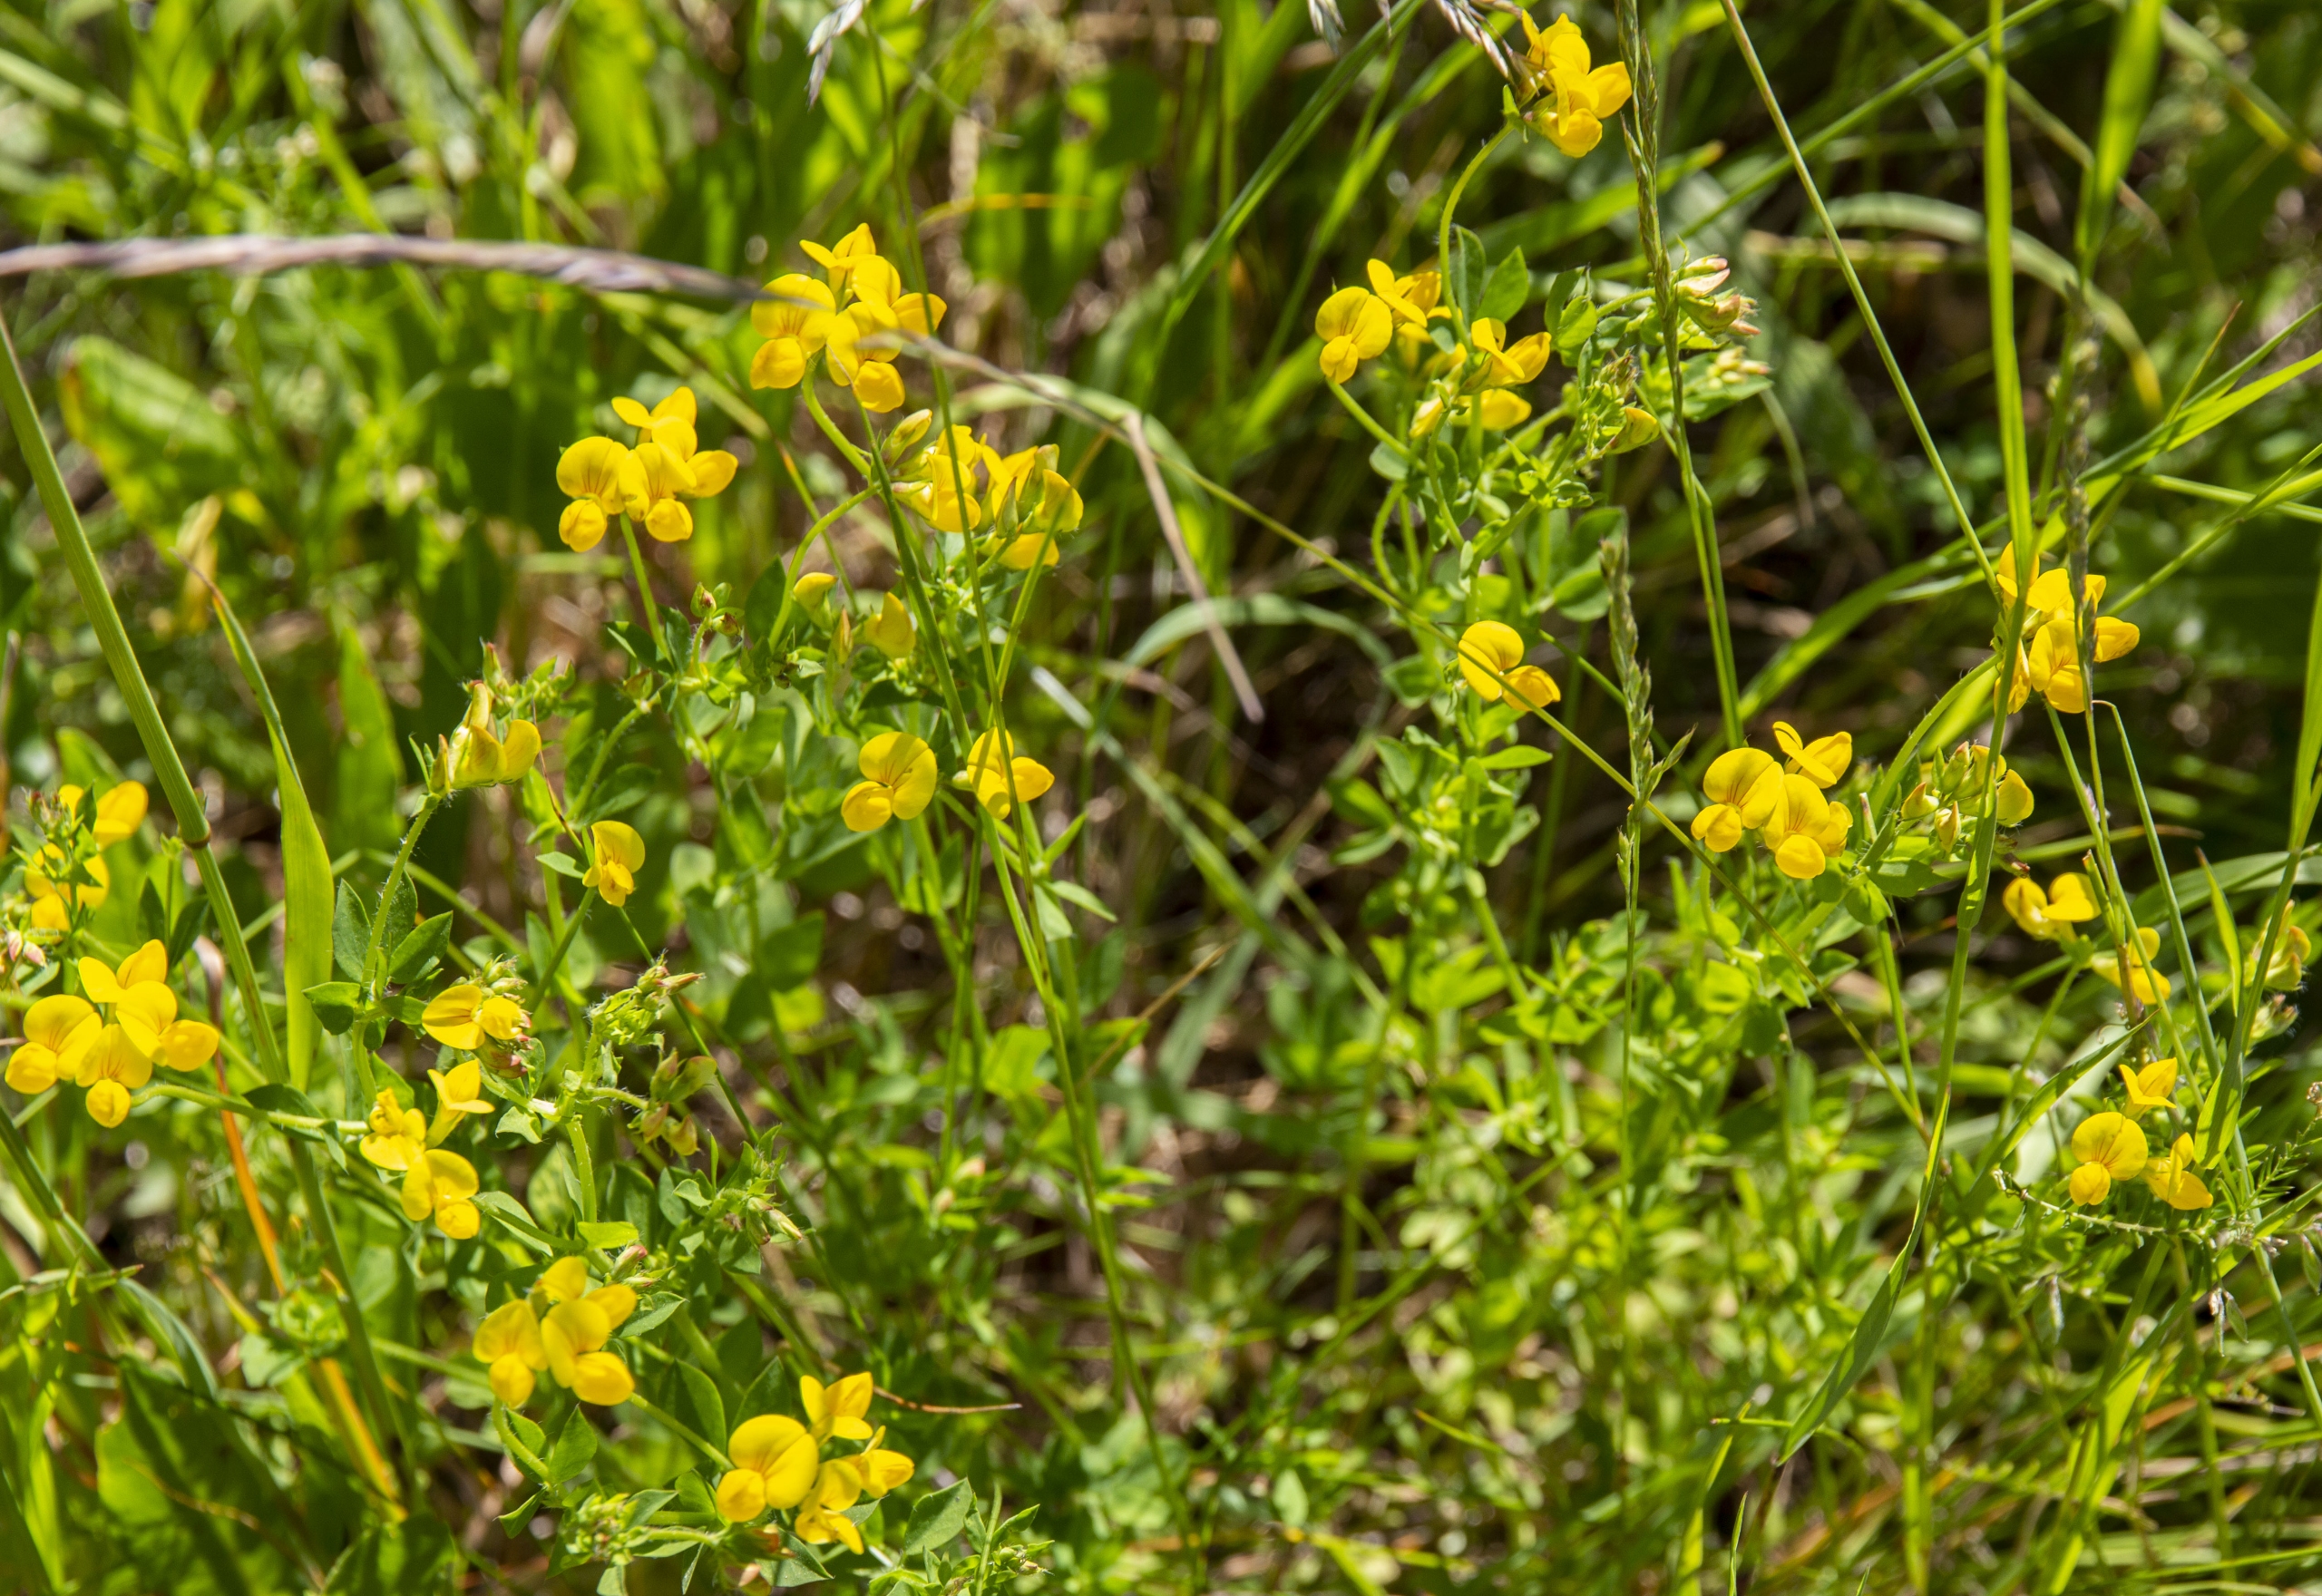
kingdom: Plantae
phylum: Tracheophyta
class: Magnoliopsida
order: Fabales
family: Fabaceae
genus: Lotus
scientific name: Lotus corniculatus
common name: Almindelig kællingetand
